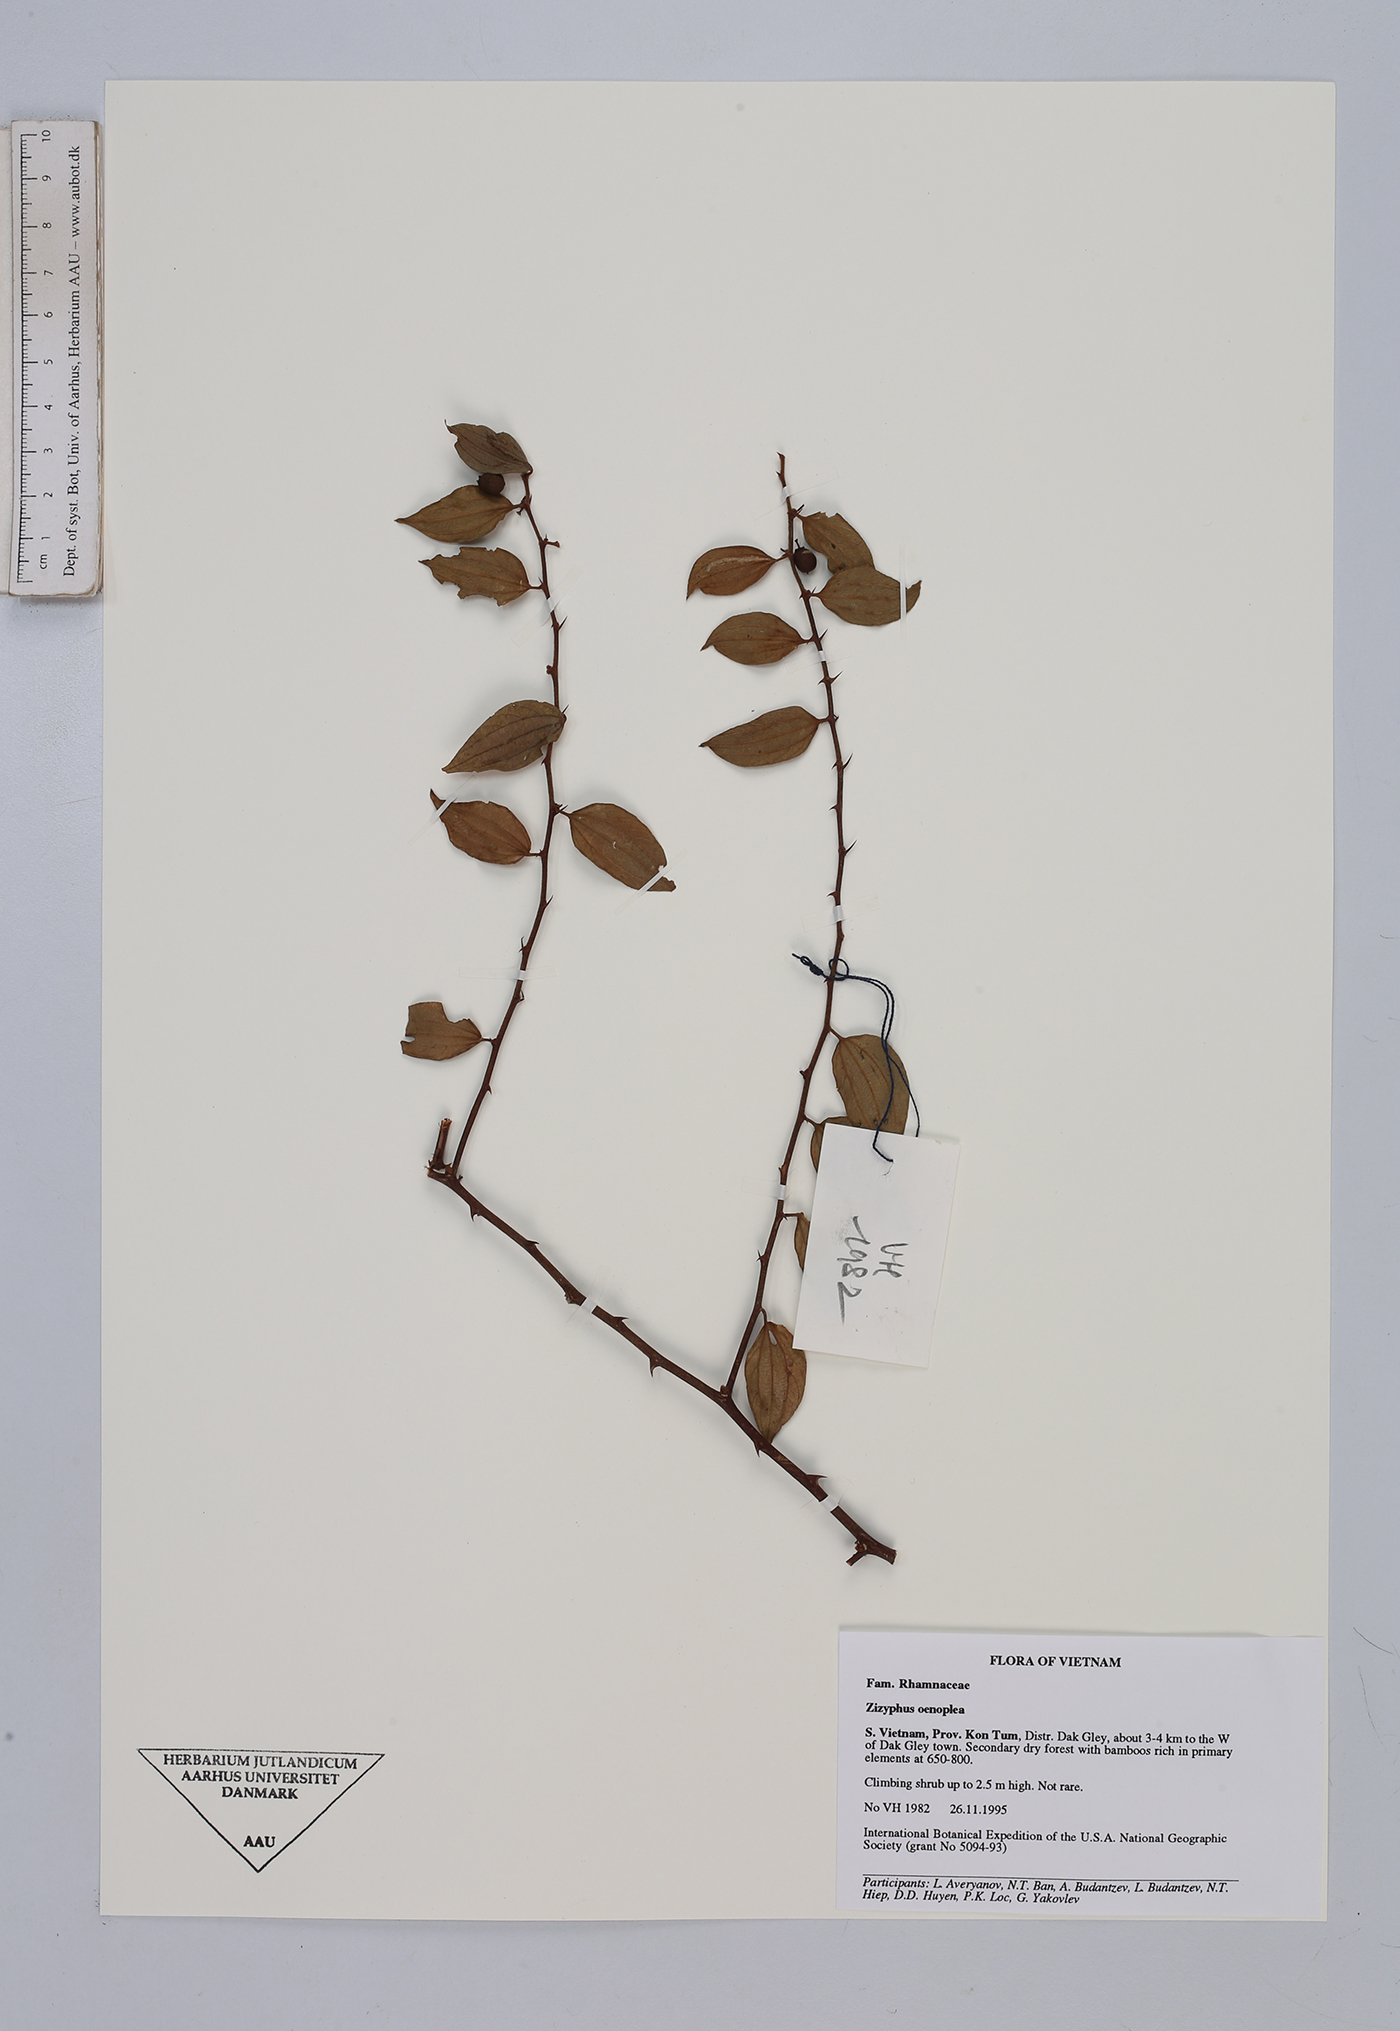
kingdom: Plantae
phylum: Tracheophyta
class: Magnoliopsida
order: Rosales
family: Rhamnaceae
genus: Ziziphus
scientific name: Ziziphus oenopolia
